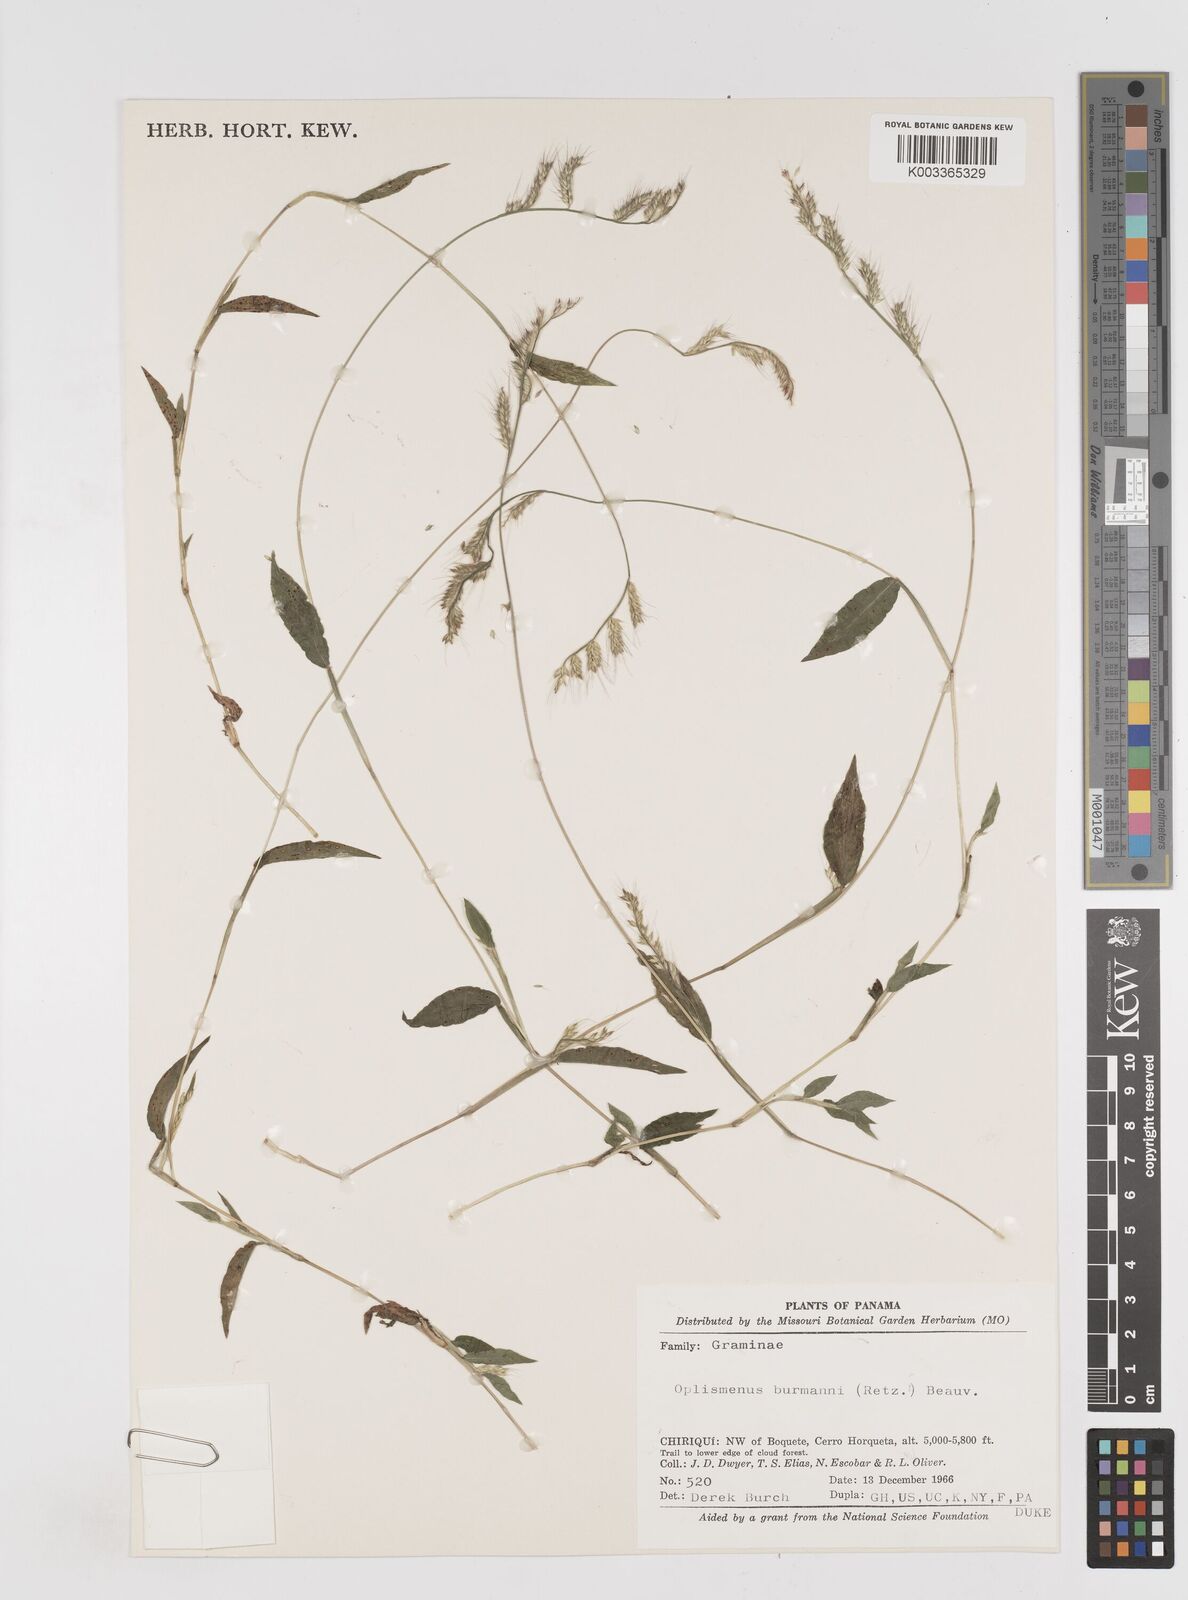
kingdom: Plantae
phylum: Tracheophyta
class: Liliopsida
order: Poales
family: Poaceae
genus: Oplismenus
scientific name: Oplismenus burmanni
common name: Burmann's basketgrass
